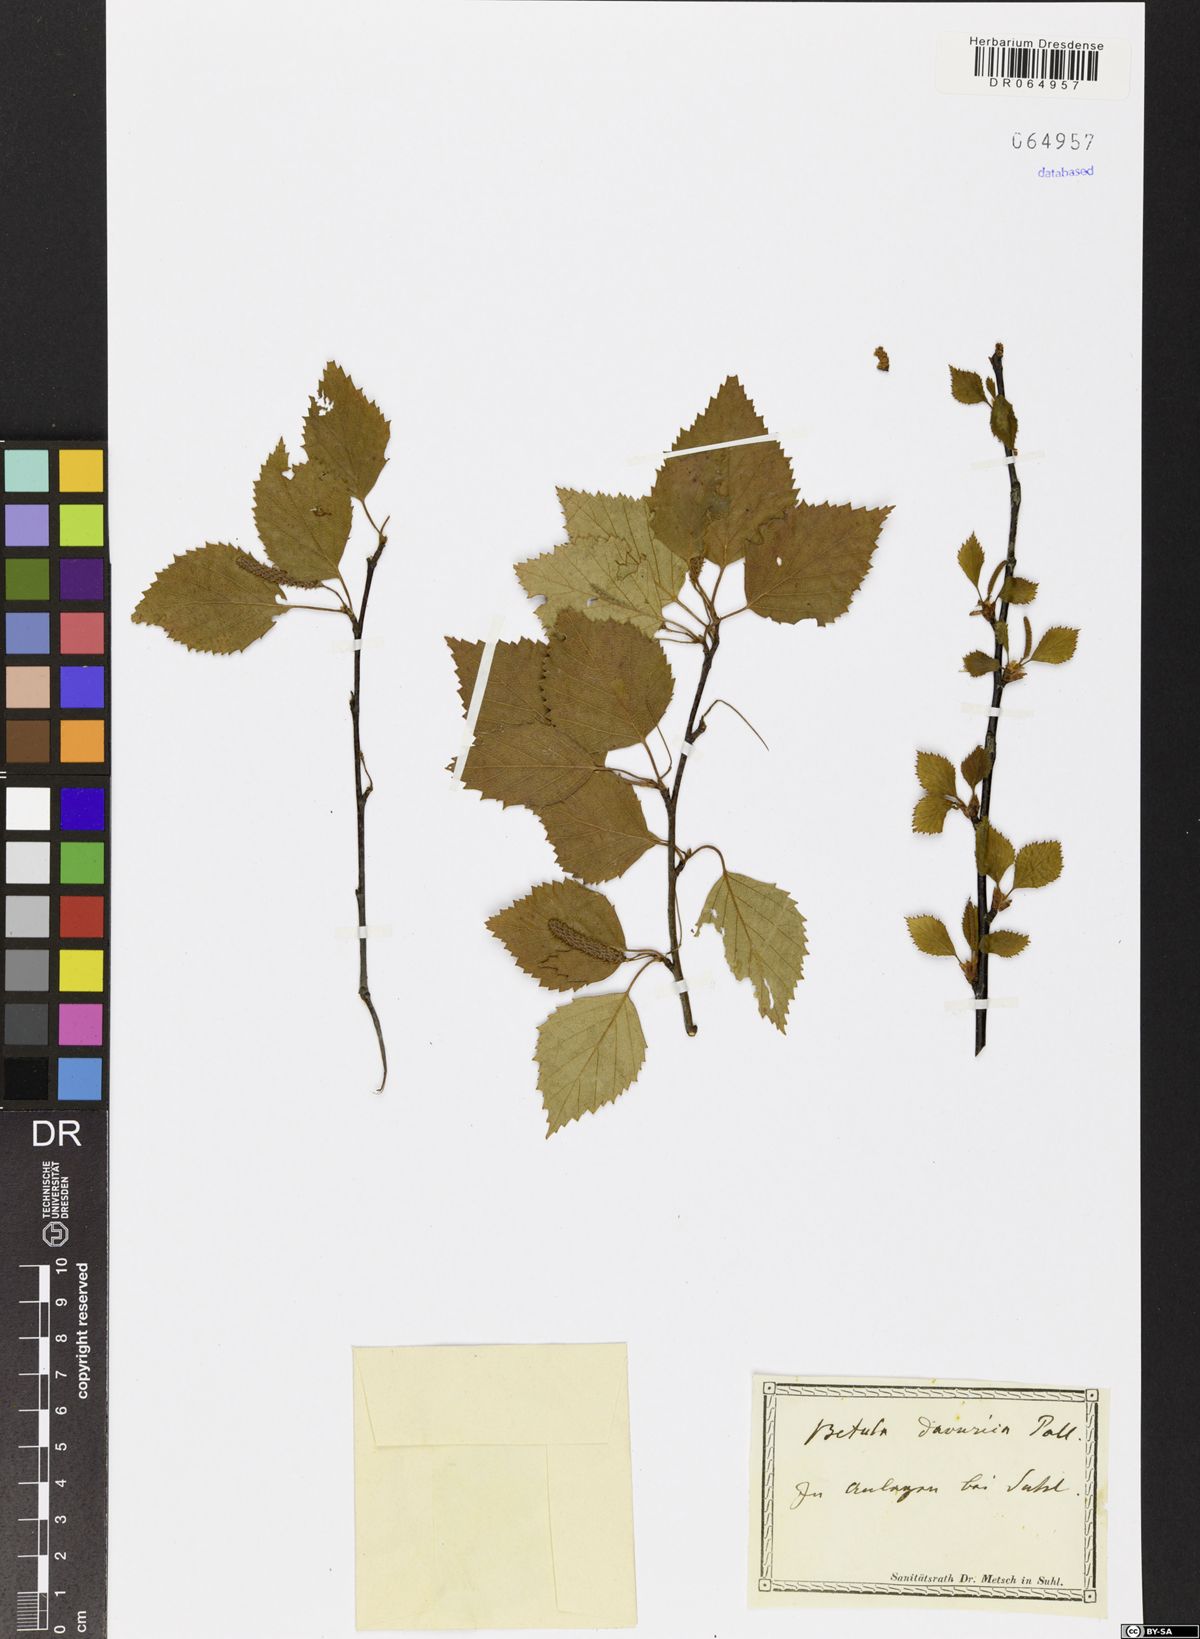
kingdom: Plantae
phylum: Tracheophyta
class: Magnoliopsida
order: Fagales
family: Betulaceae
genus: Betula
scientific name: Betula davurica
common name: Black birch
